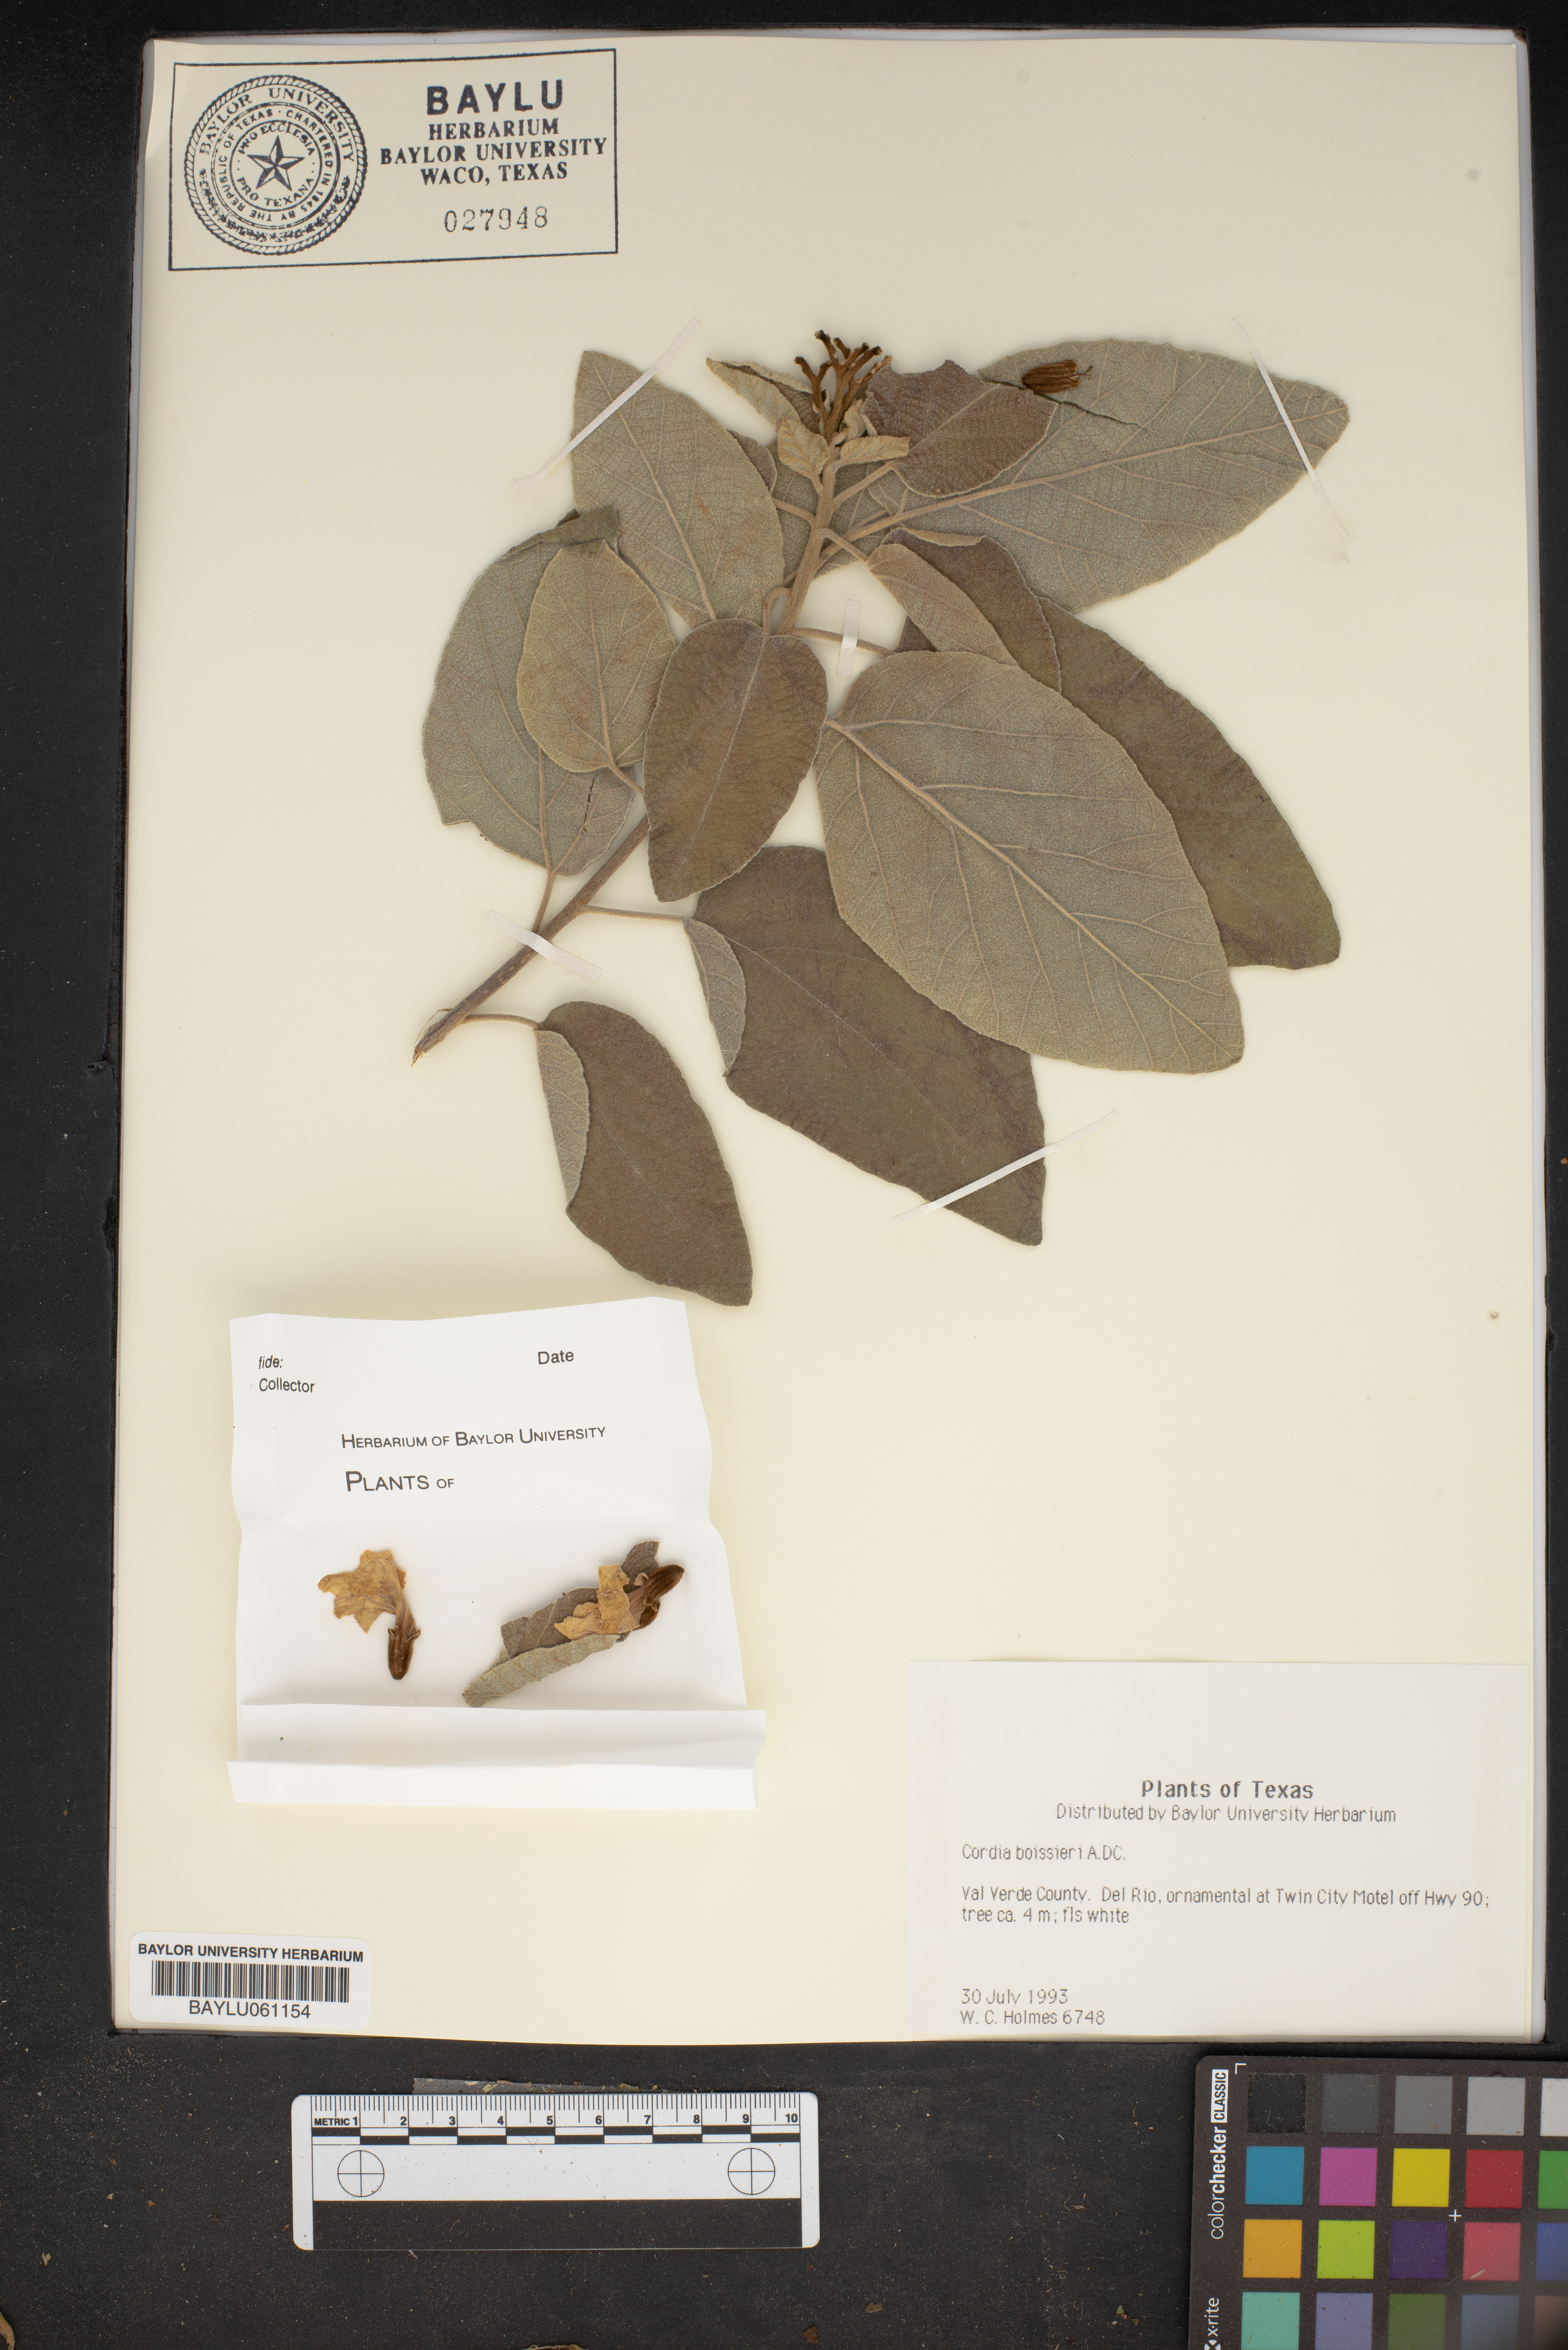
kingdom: Plantae
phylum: Tracheophyta
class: Magnoliopsida
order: Boraginales
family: Cordiaceae
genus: Cordia
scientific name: Cordia boissieri
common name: Mexican-olive
